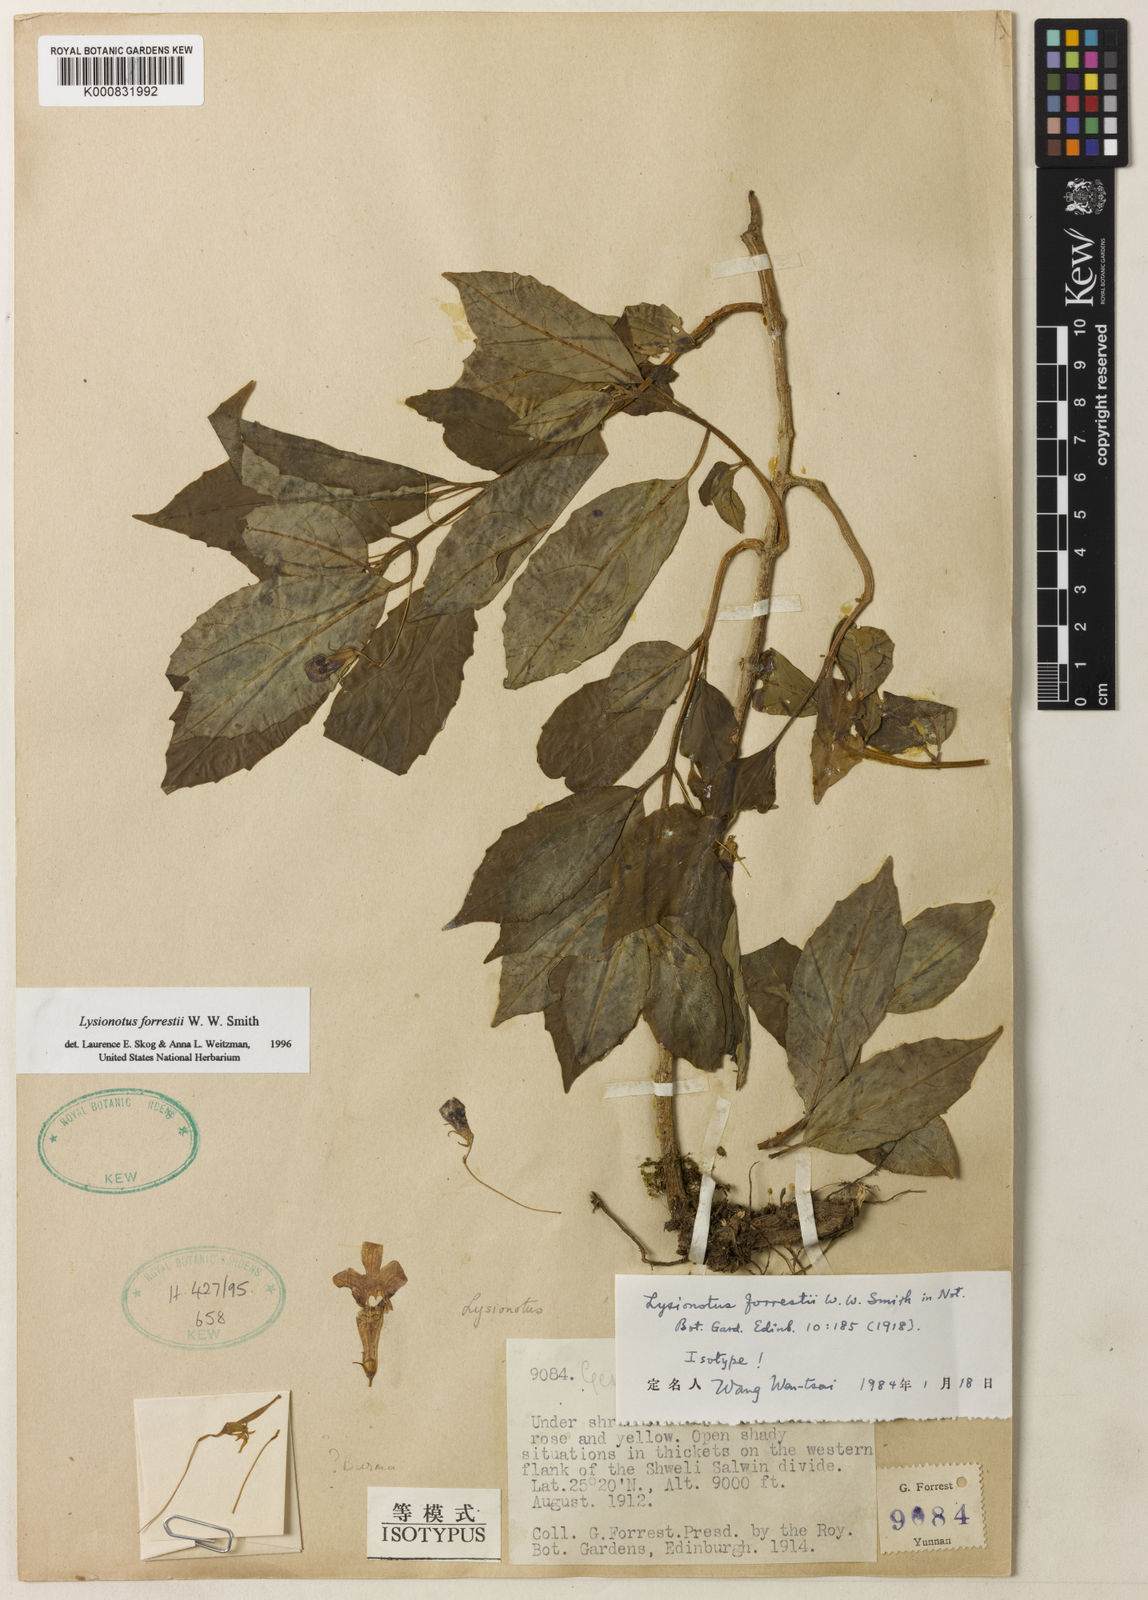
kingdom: Plantae
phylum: Tracheophyta
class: Magnoliopsida
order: Lamiales
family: Gesneriaceae
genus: Lysionotus
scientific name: Lysionotus forrestii
